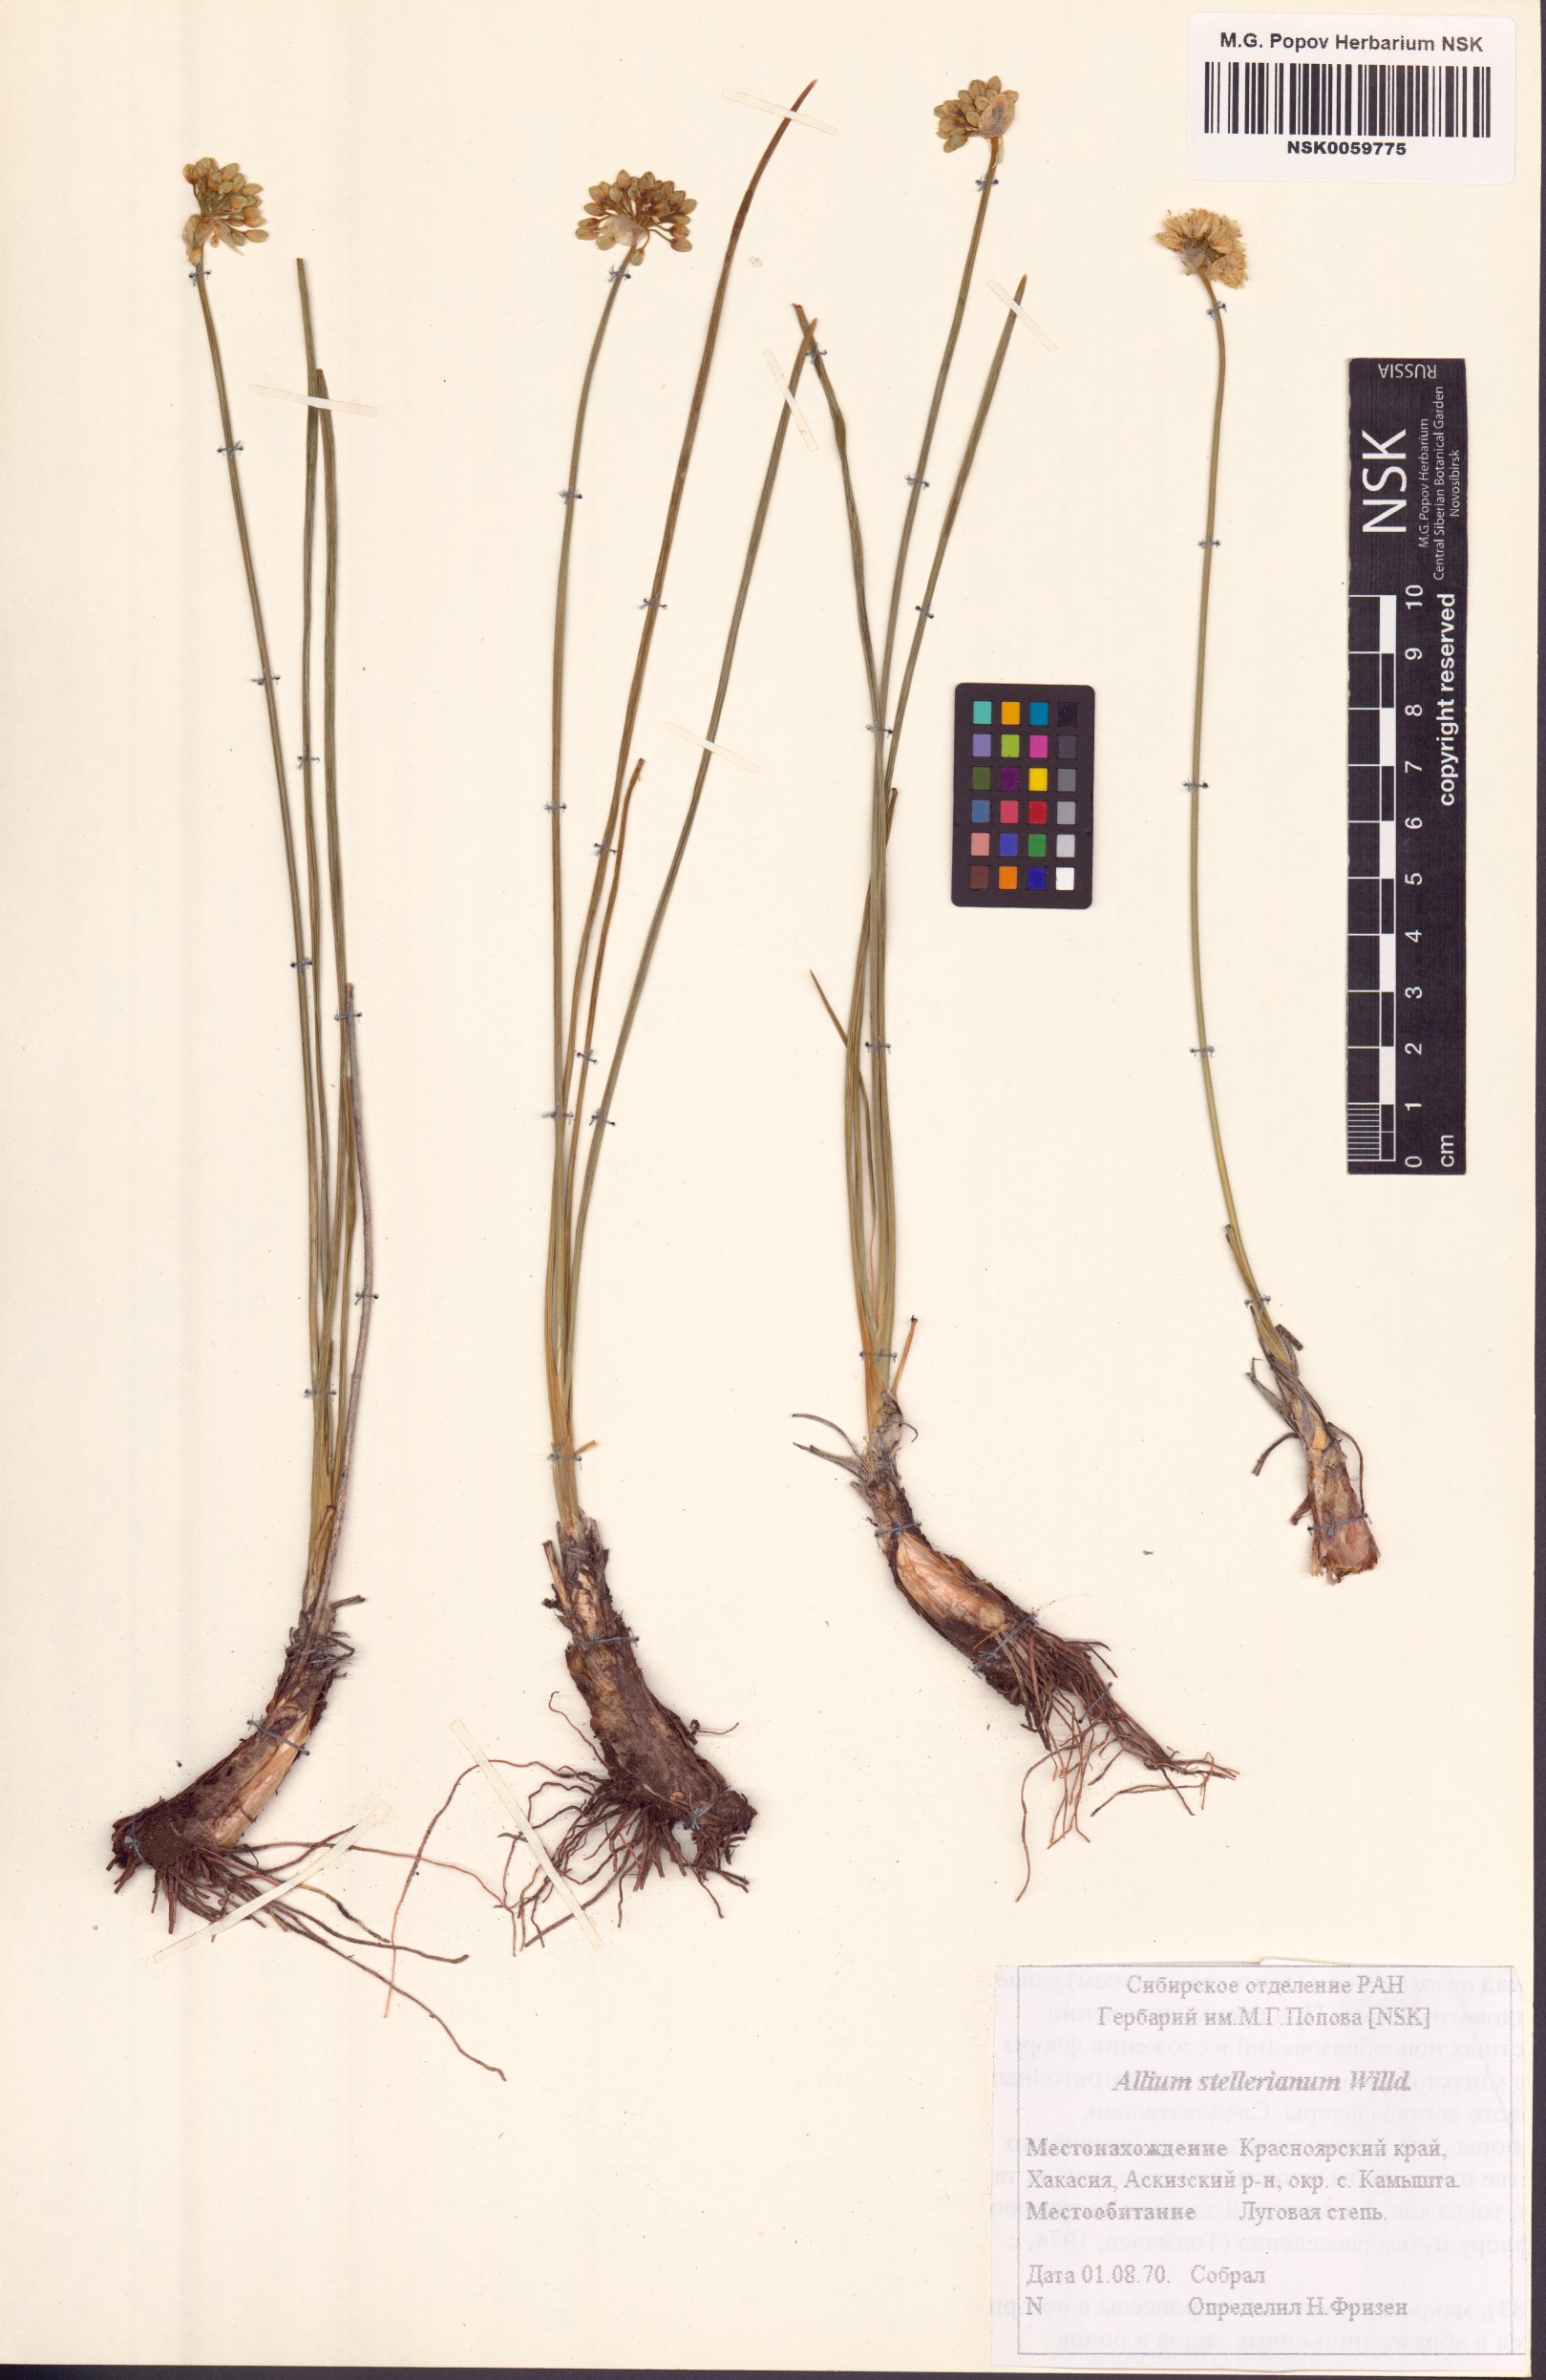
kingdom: Plantae
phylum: Tracheophyta
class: Liliopsida
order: Asparagales
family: Amaryllidaceae
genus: Allium
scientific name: Allium stellerianum
